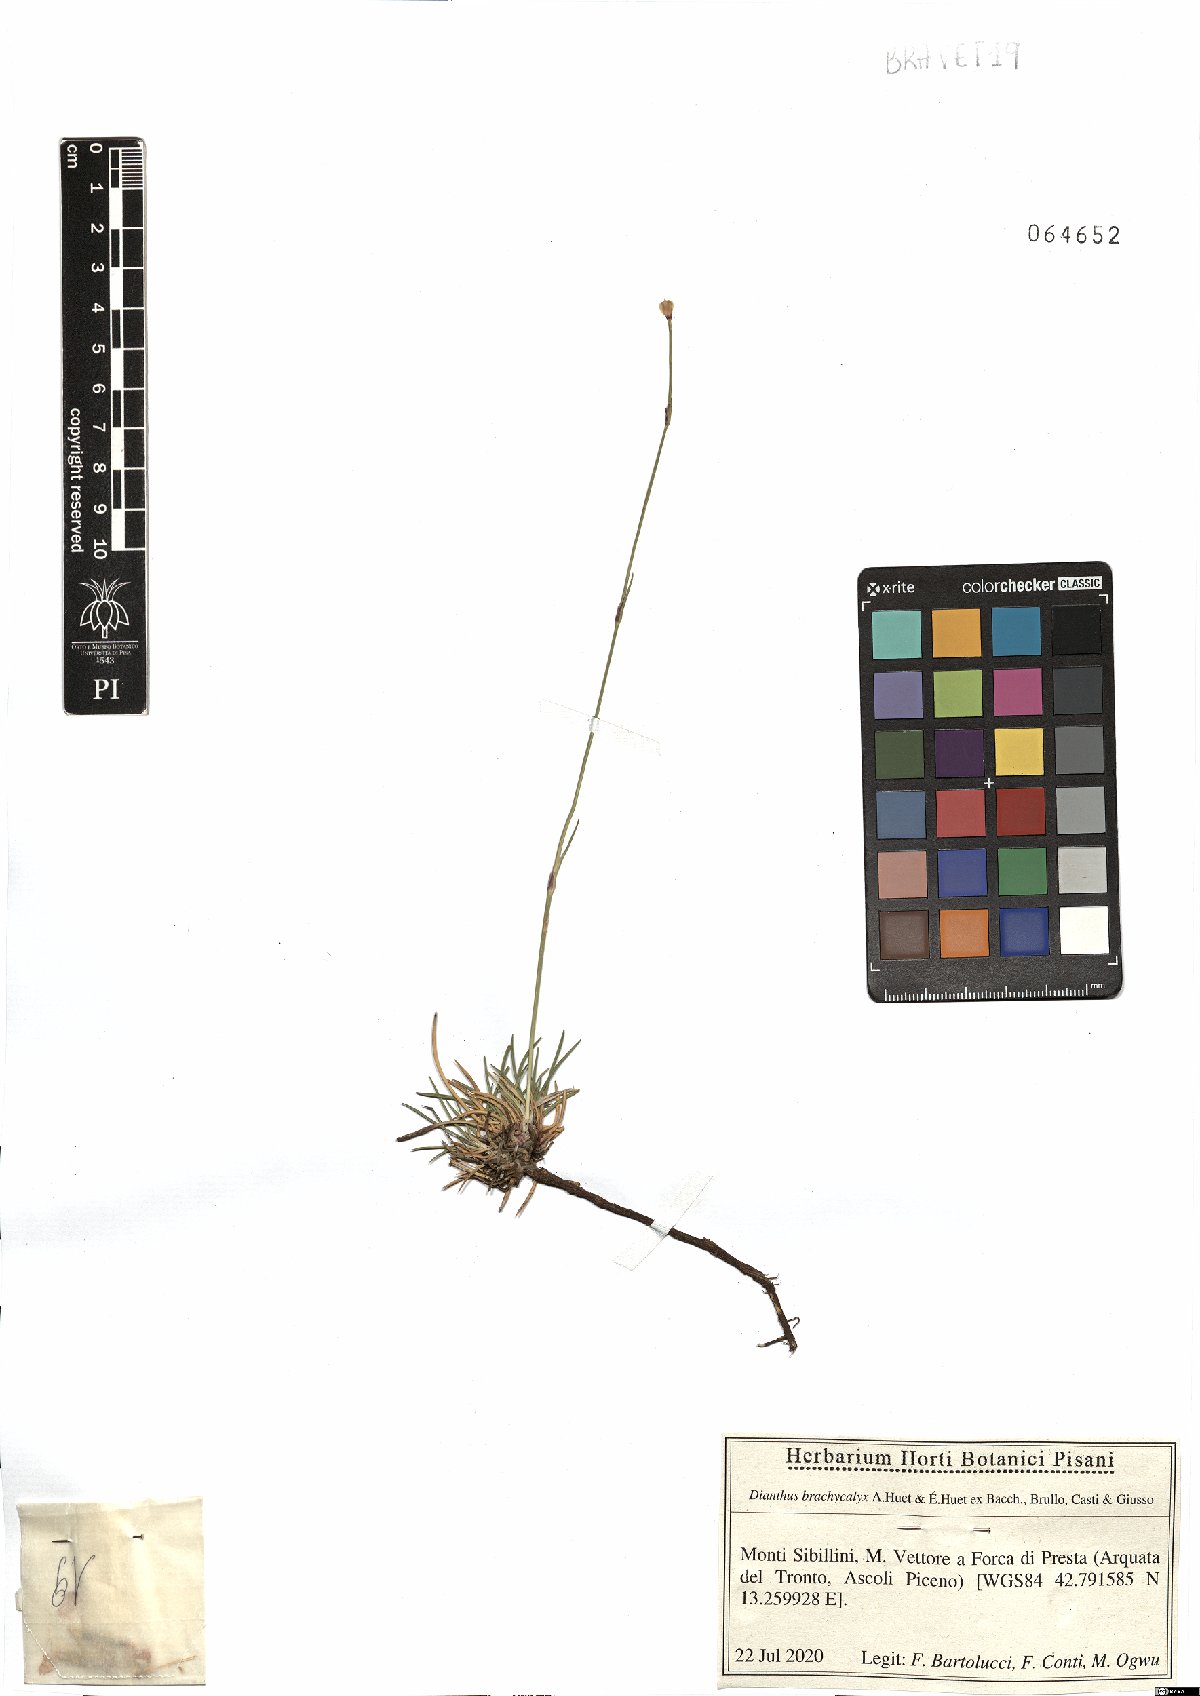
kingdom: Plantae
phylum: Tracheophyta
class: Magnoliopsida
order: Caryophyllales
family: Caryophyllaceae
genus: Dianthus
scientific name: Dianthus brachycalyx
